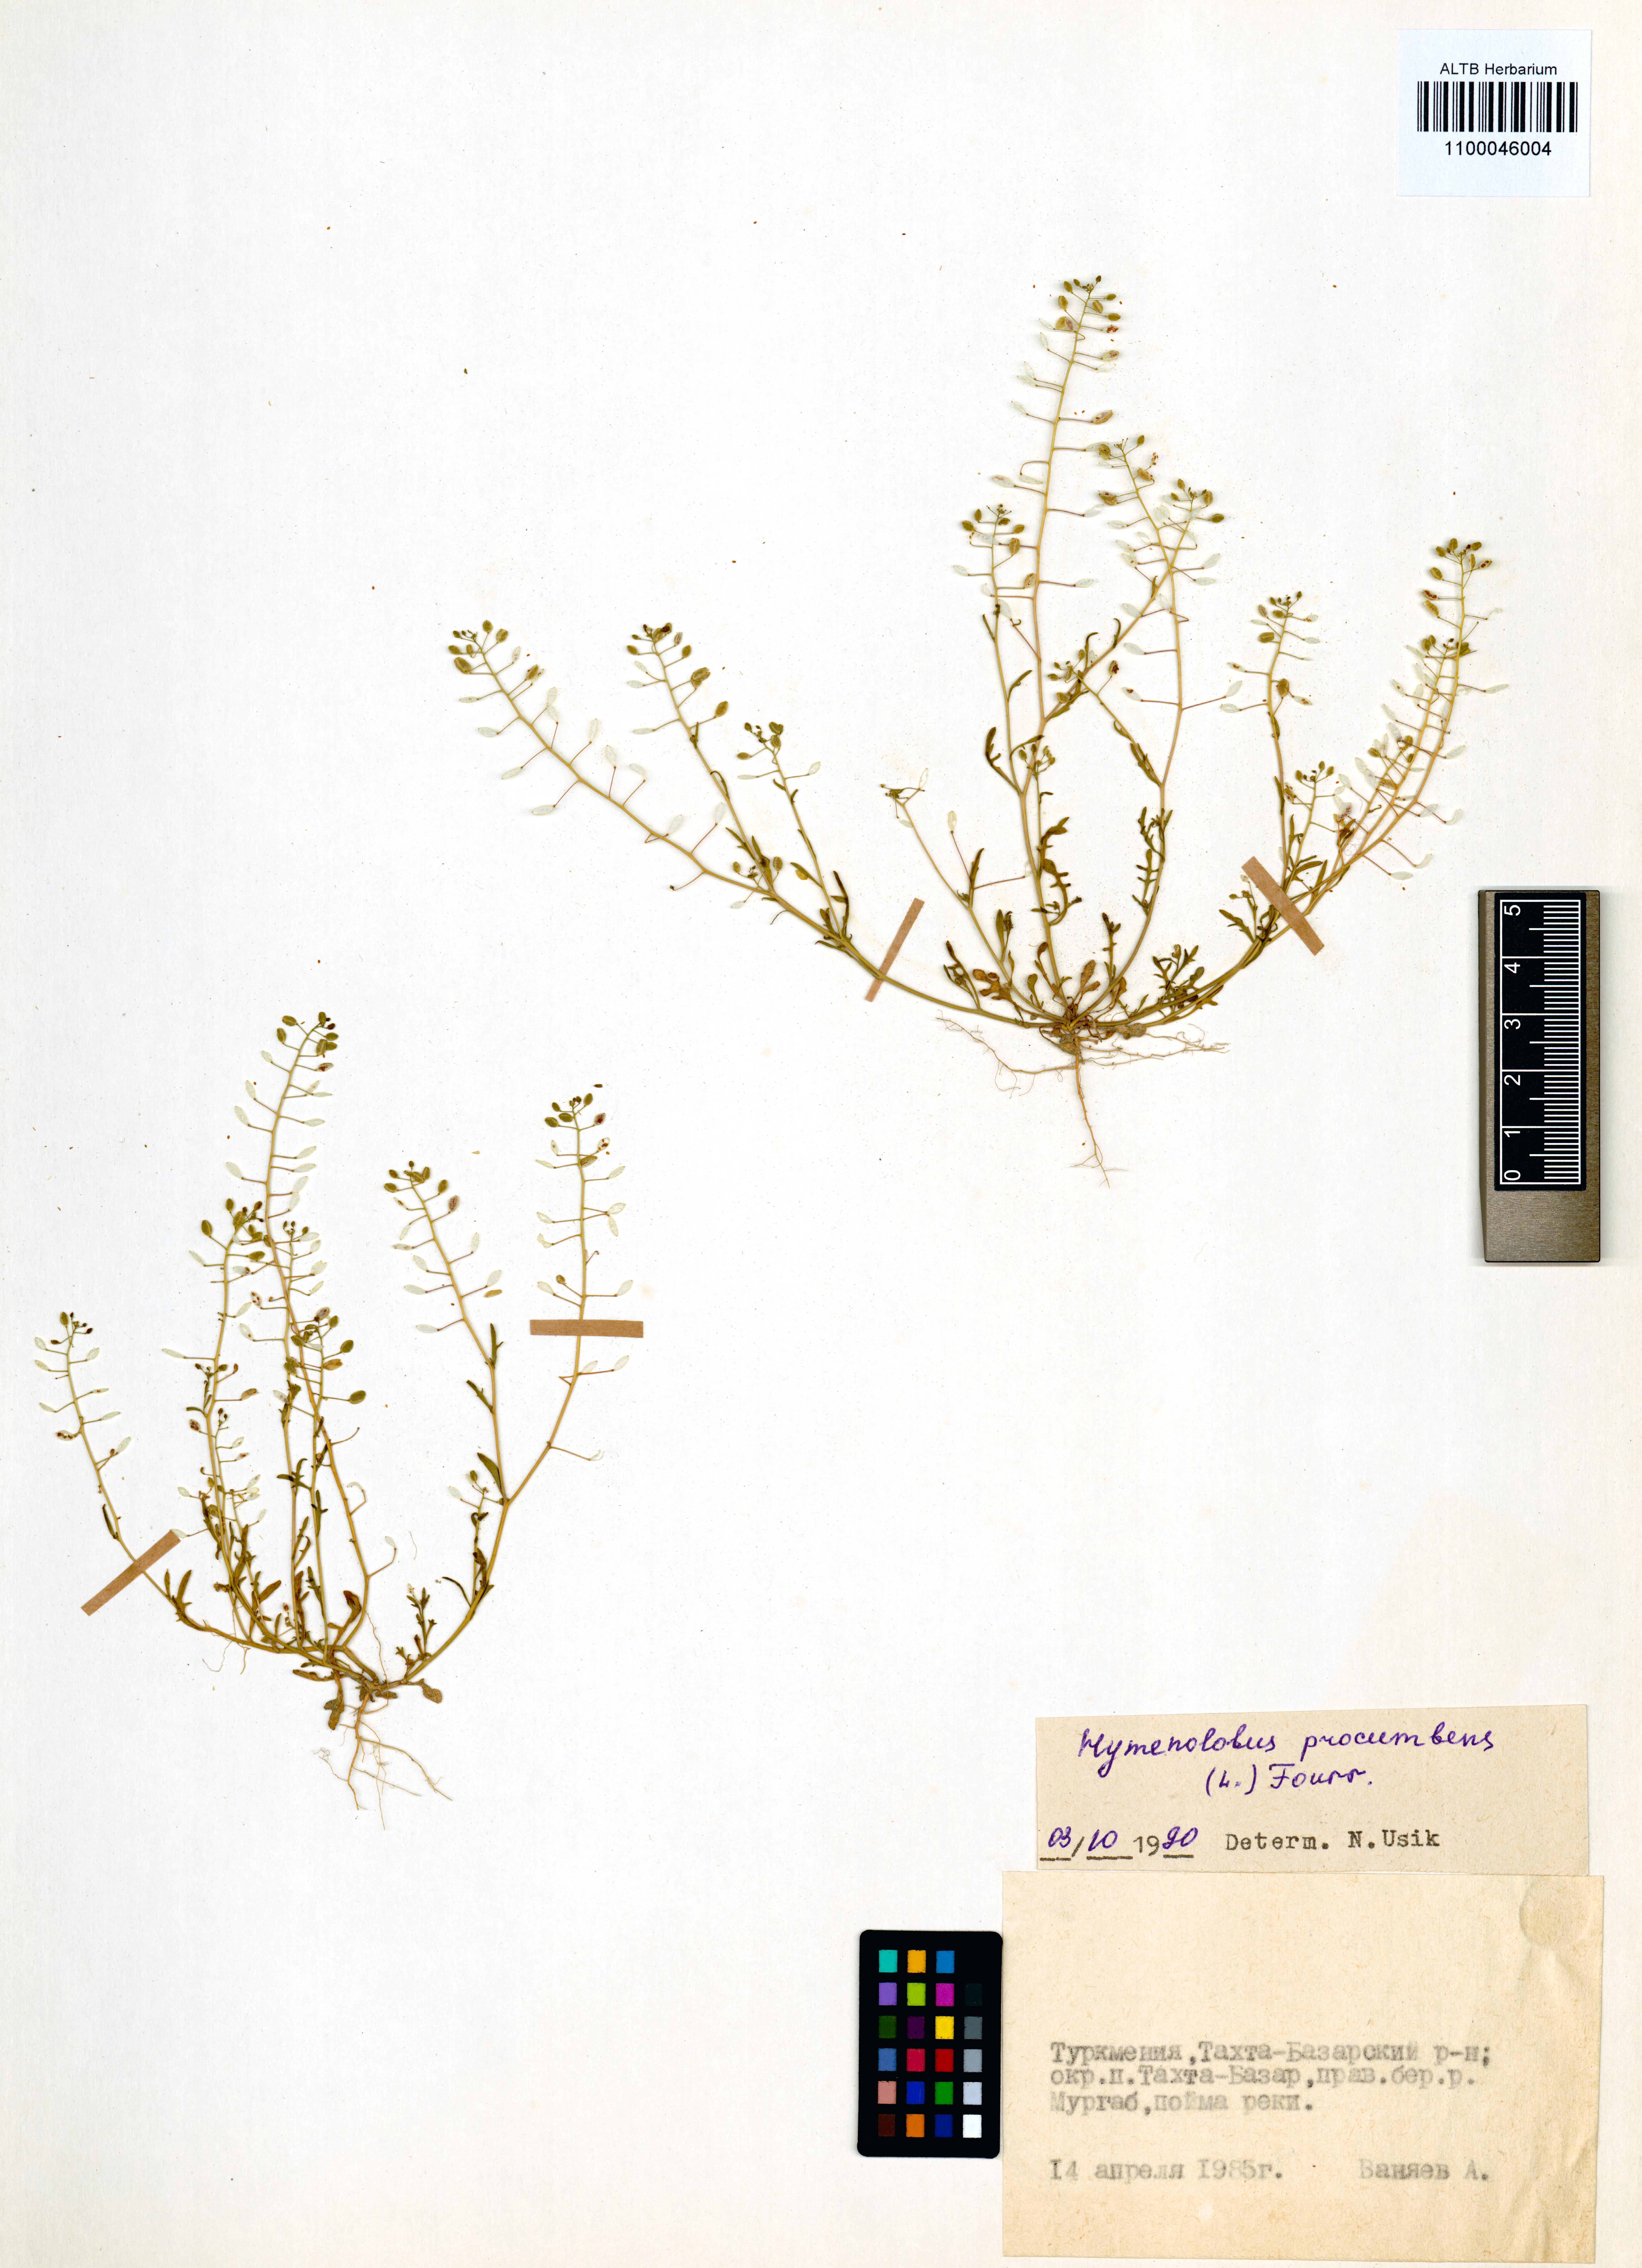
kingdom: Plantae
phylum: Tracheophyta
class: Magnoliopsida
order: Brassicales
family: Brassicaceae
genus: Hornungia
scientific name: Hornungia procumbens
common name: Oval purse
